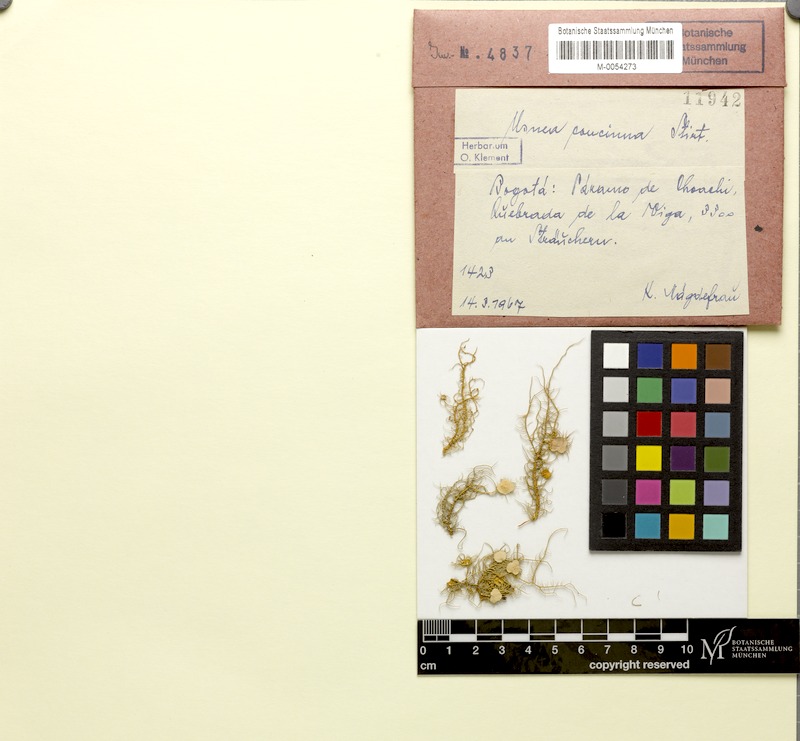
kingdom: Fungi
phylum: Ascomycota
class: Lecanoromycetes
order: Lecanorales
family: Parmeliaceae
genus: Usnea
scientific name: Usnea
